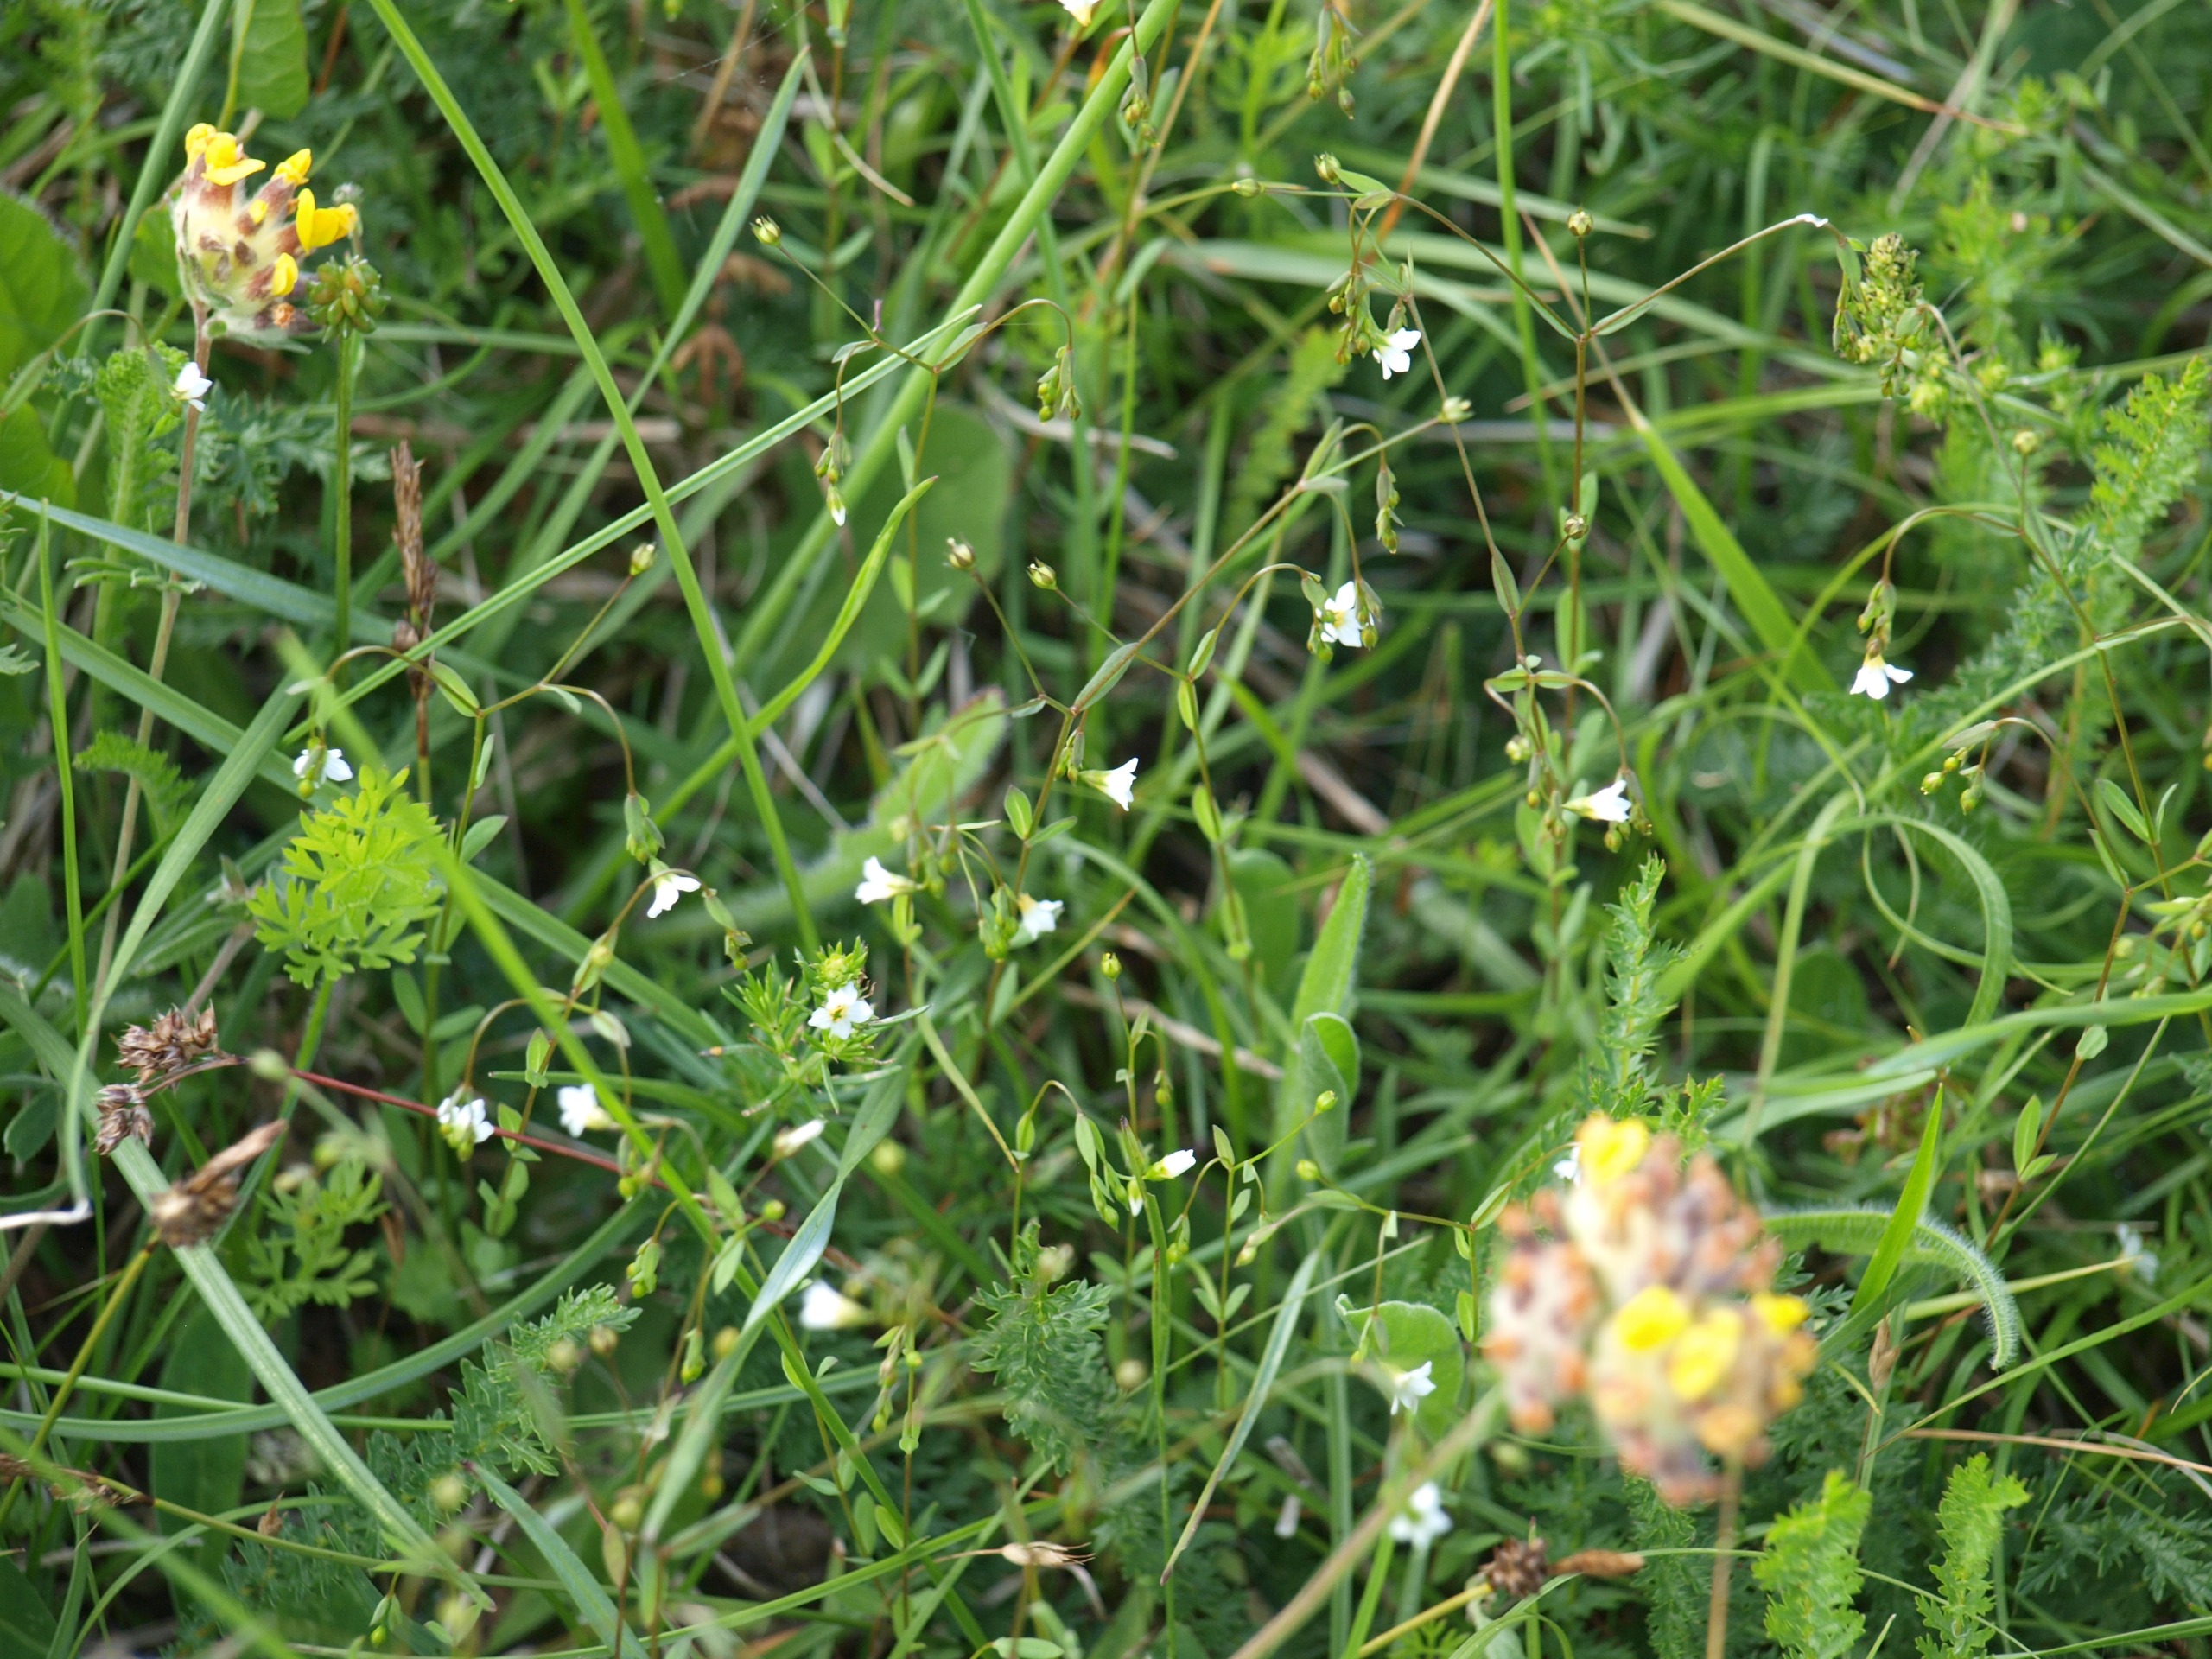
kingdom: Plantae
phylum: Tracheophyta
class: Magnoliopsida
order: Malpighiales
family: Linaceae
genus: Linum
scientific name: Linum catharticum
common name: Vild hør
